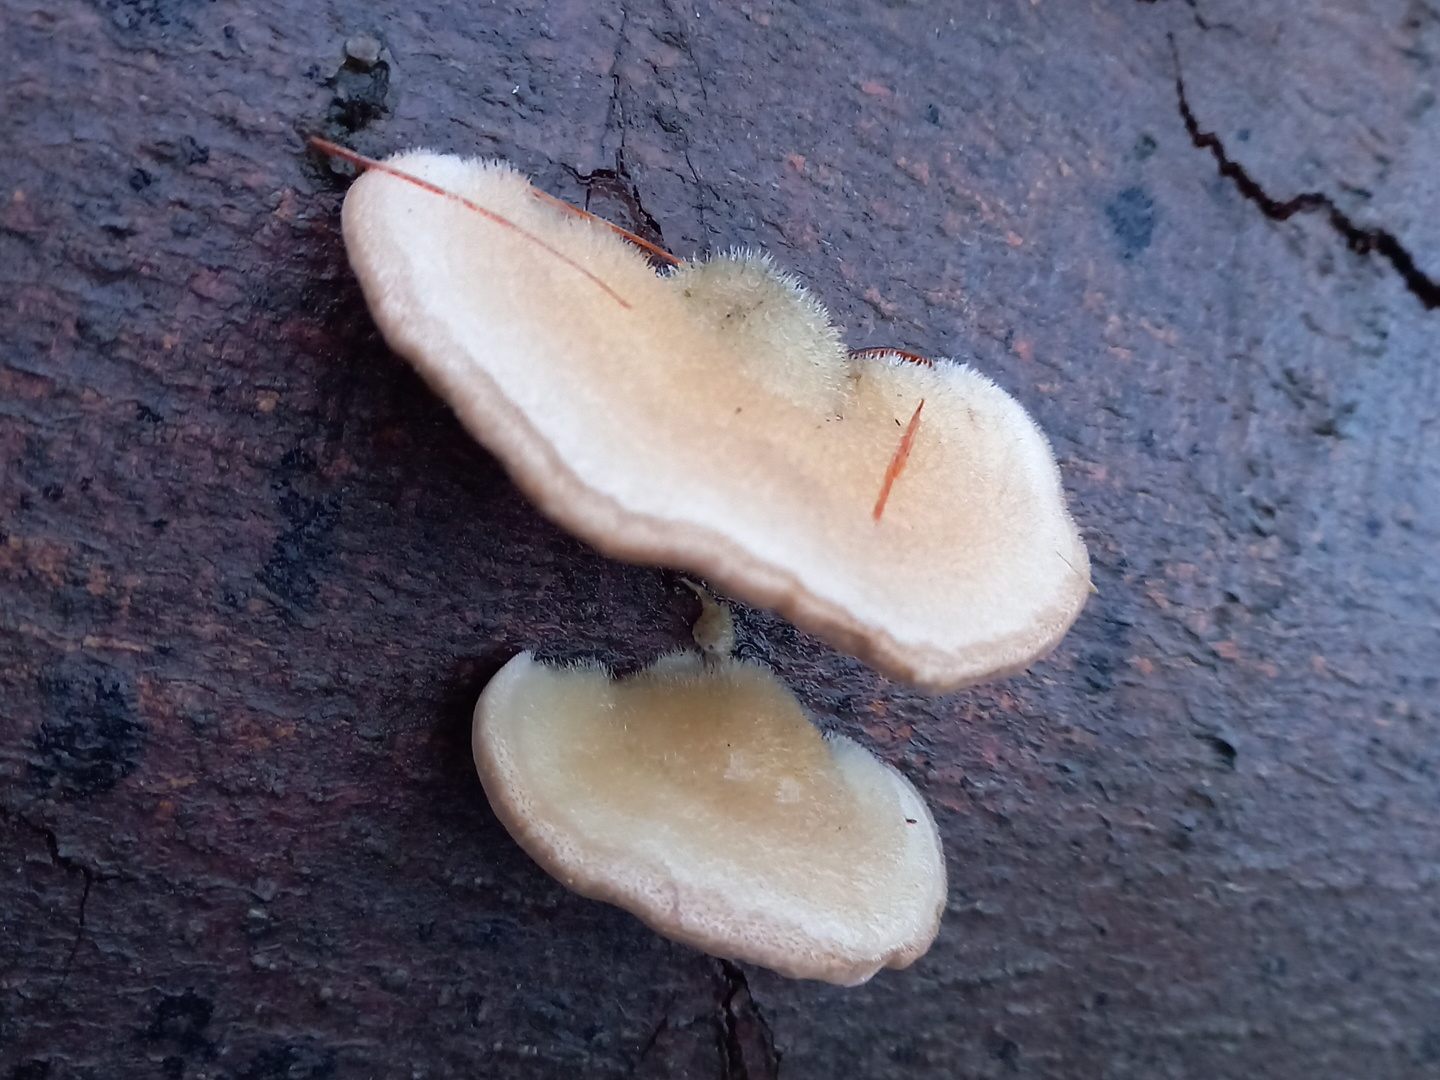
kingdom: Fungi
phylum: Basidiomycota
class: Agaricomycetes
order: Polyporales
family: Polyporaceae
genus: Trametes
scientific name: Trametes hirsuta
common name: håret læderporesvamp
